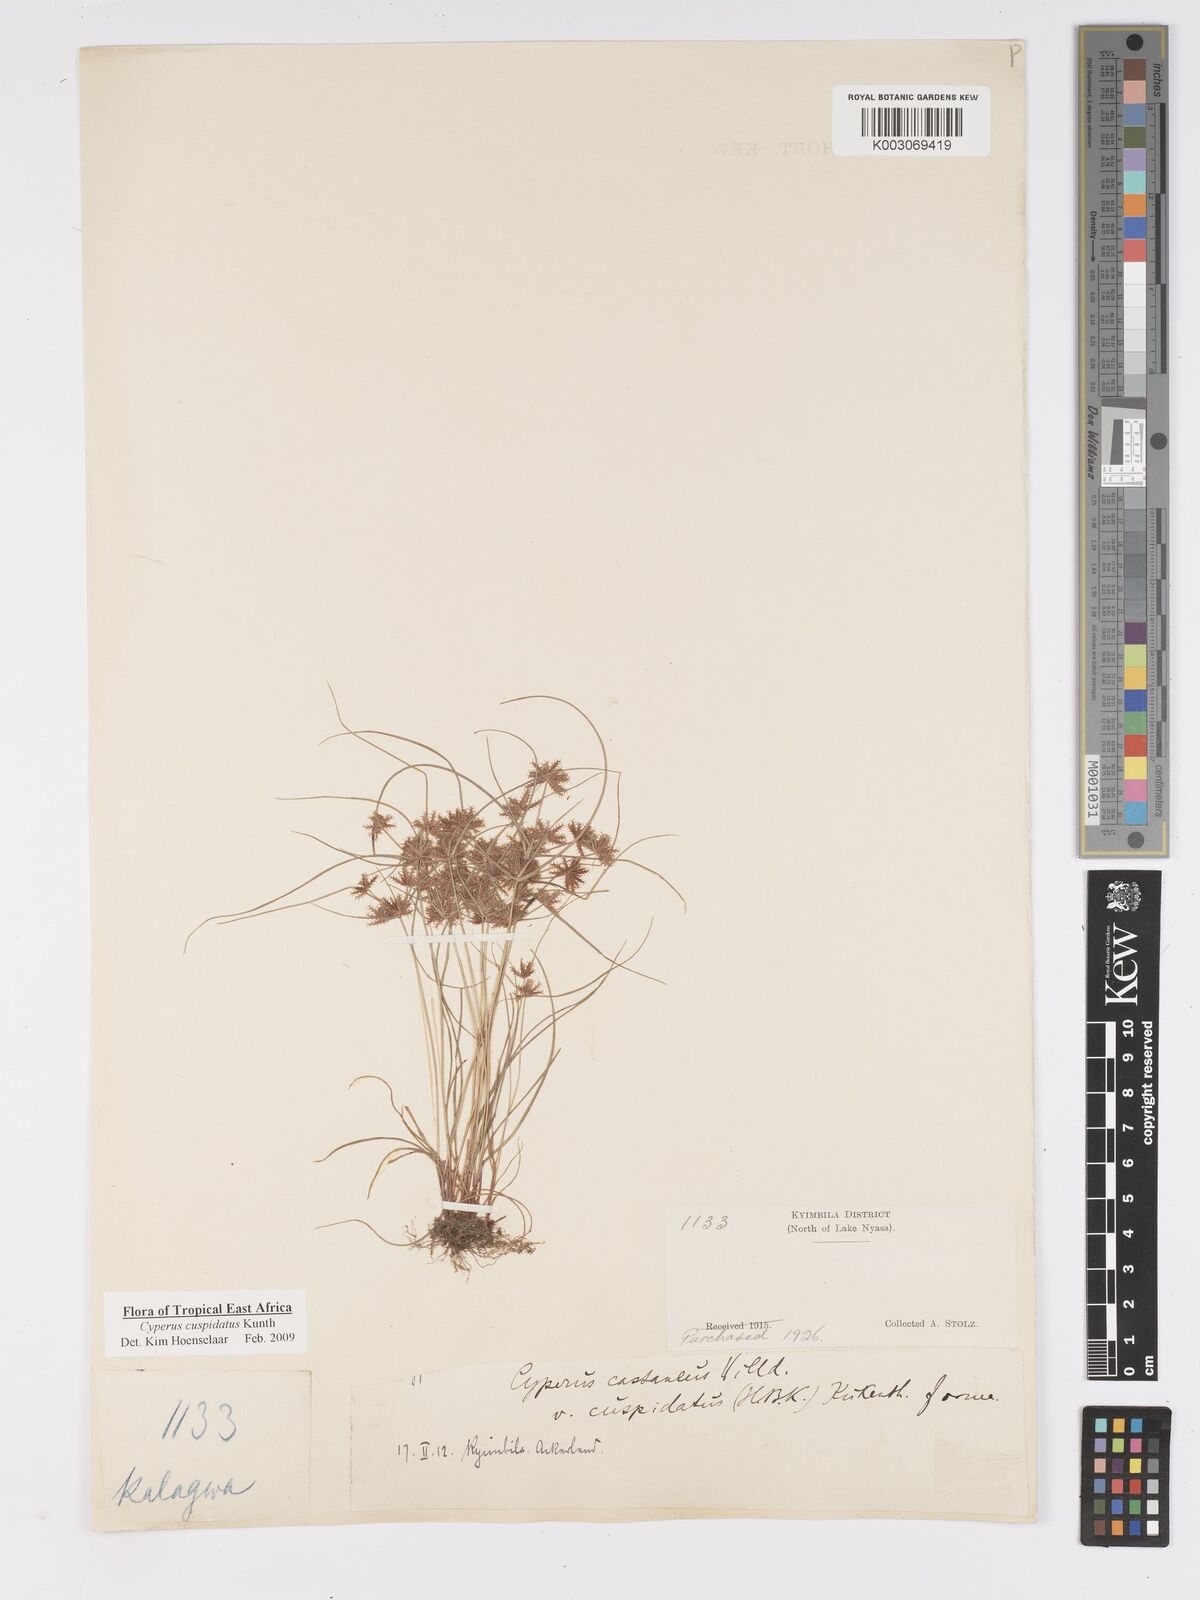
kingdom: Plantae
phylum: Tracheophyta
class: Liliopsida
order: Poales
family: Cyperaceae
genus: Cyperus
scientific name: Cyperus cuspidatus
